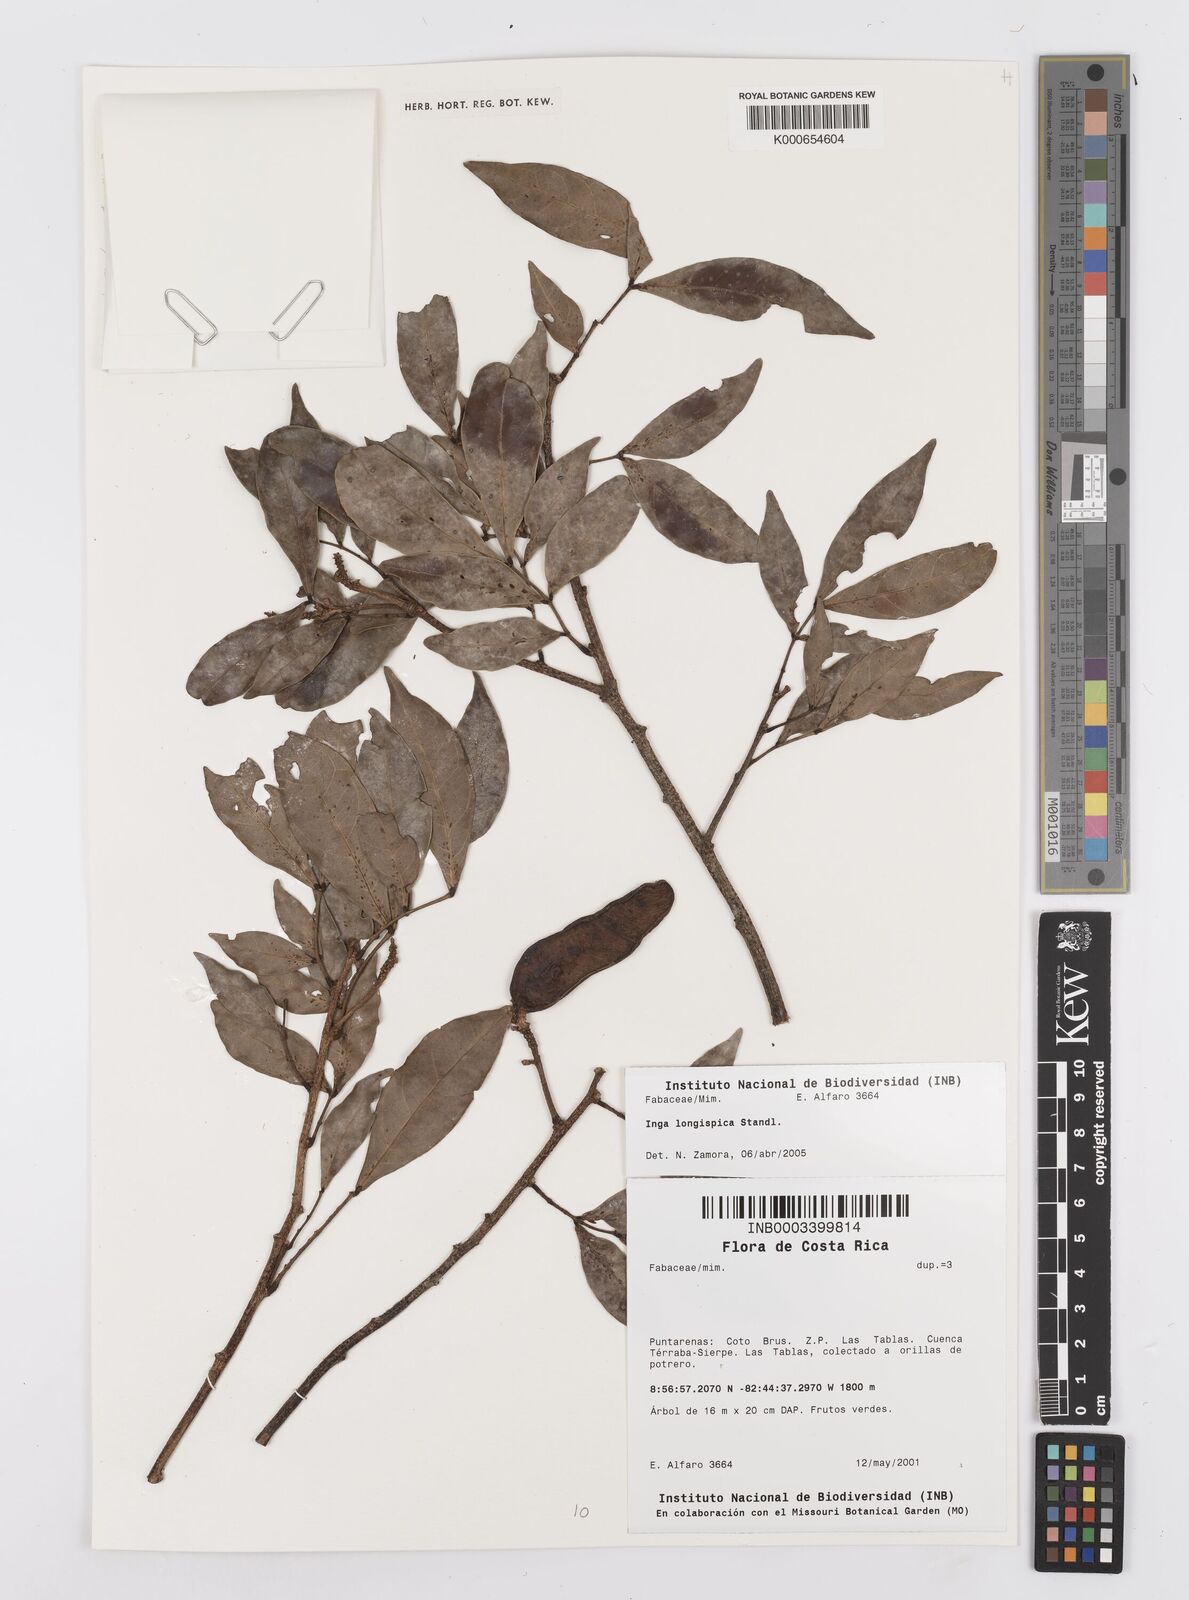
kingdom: Plantae
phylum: Tracheophyta
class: Magnoliopsida
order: Fabales
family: Fabaceae
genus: Inga
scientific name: Inga longispica
